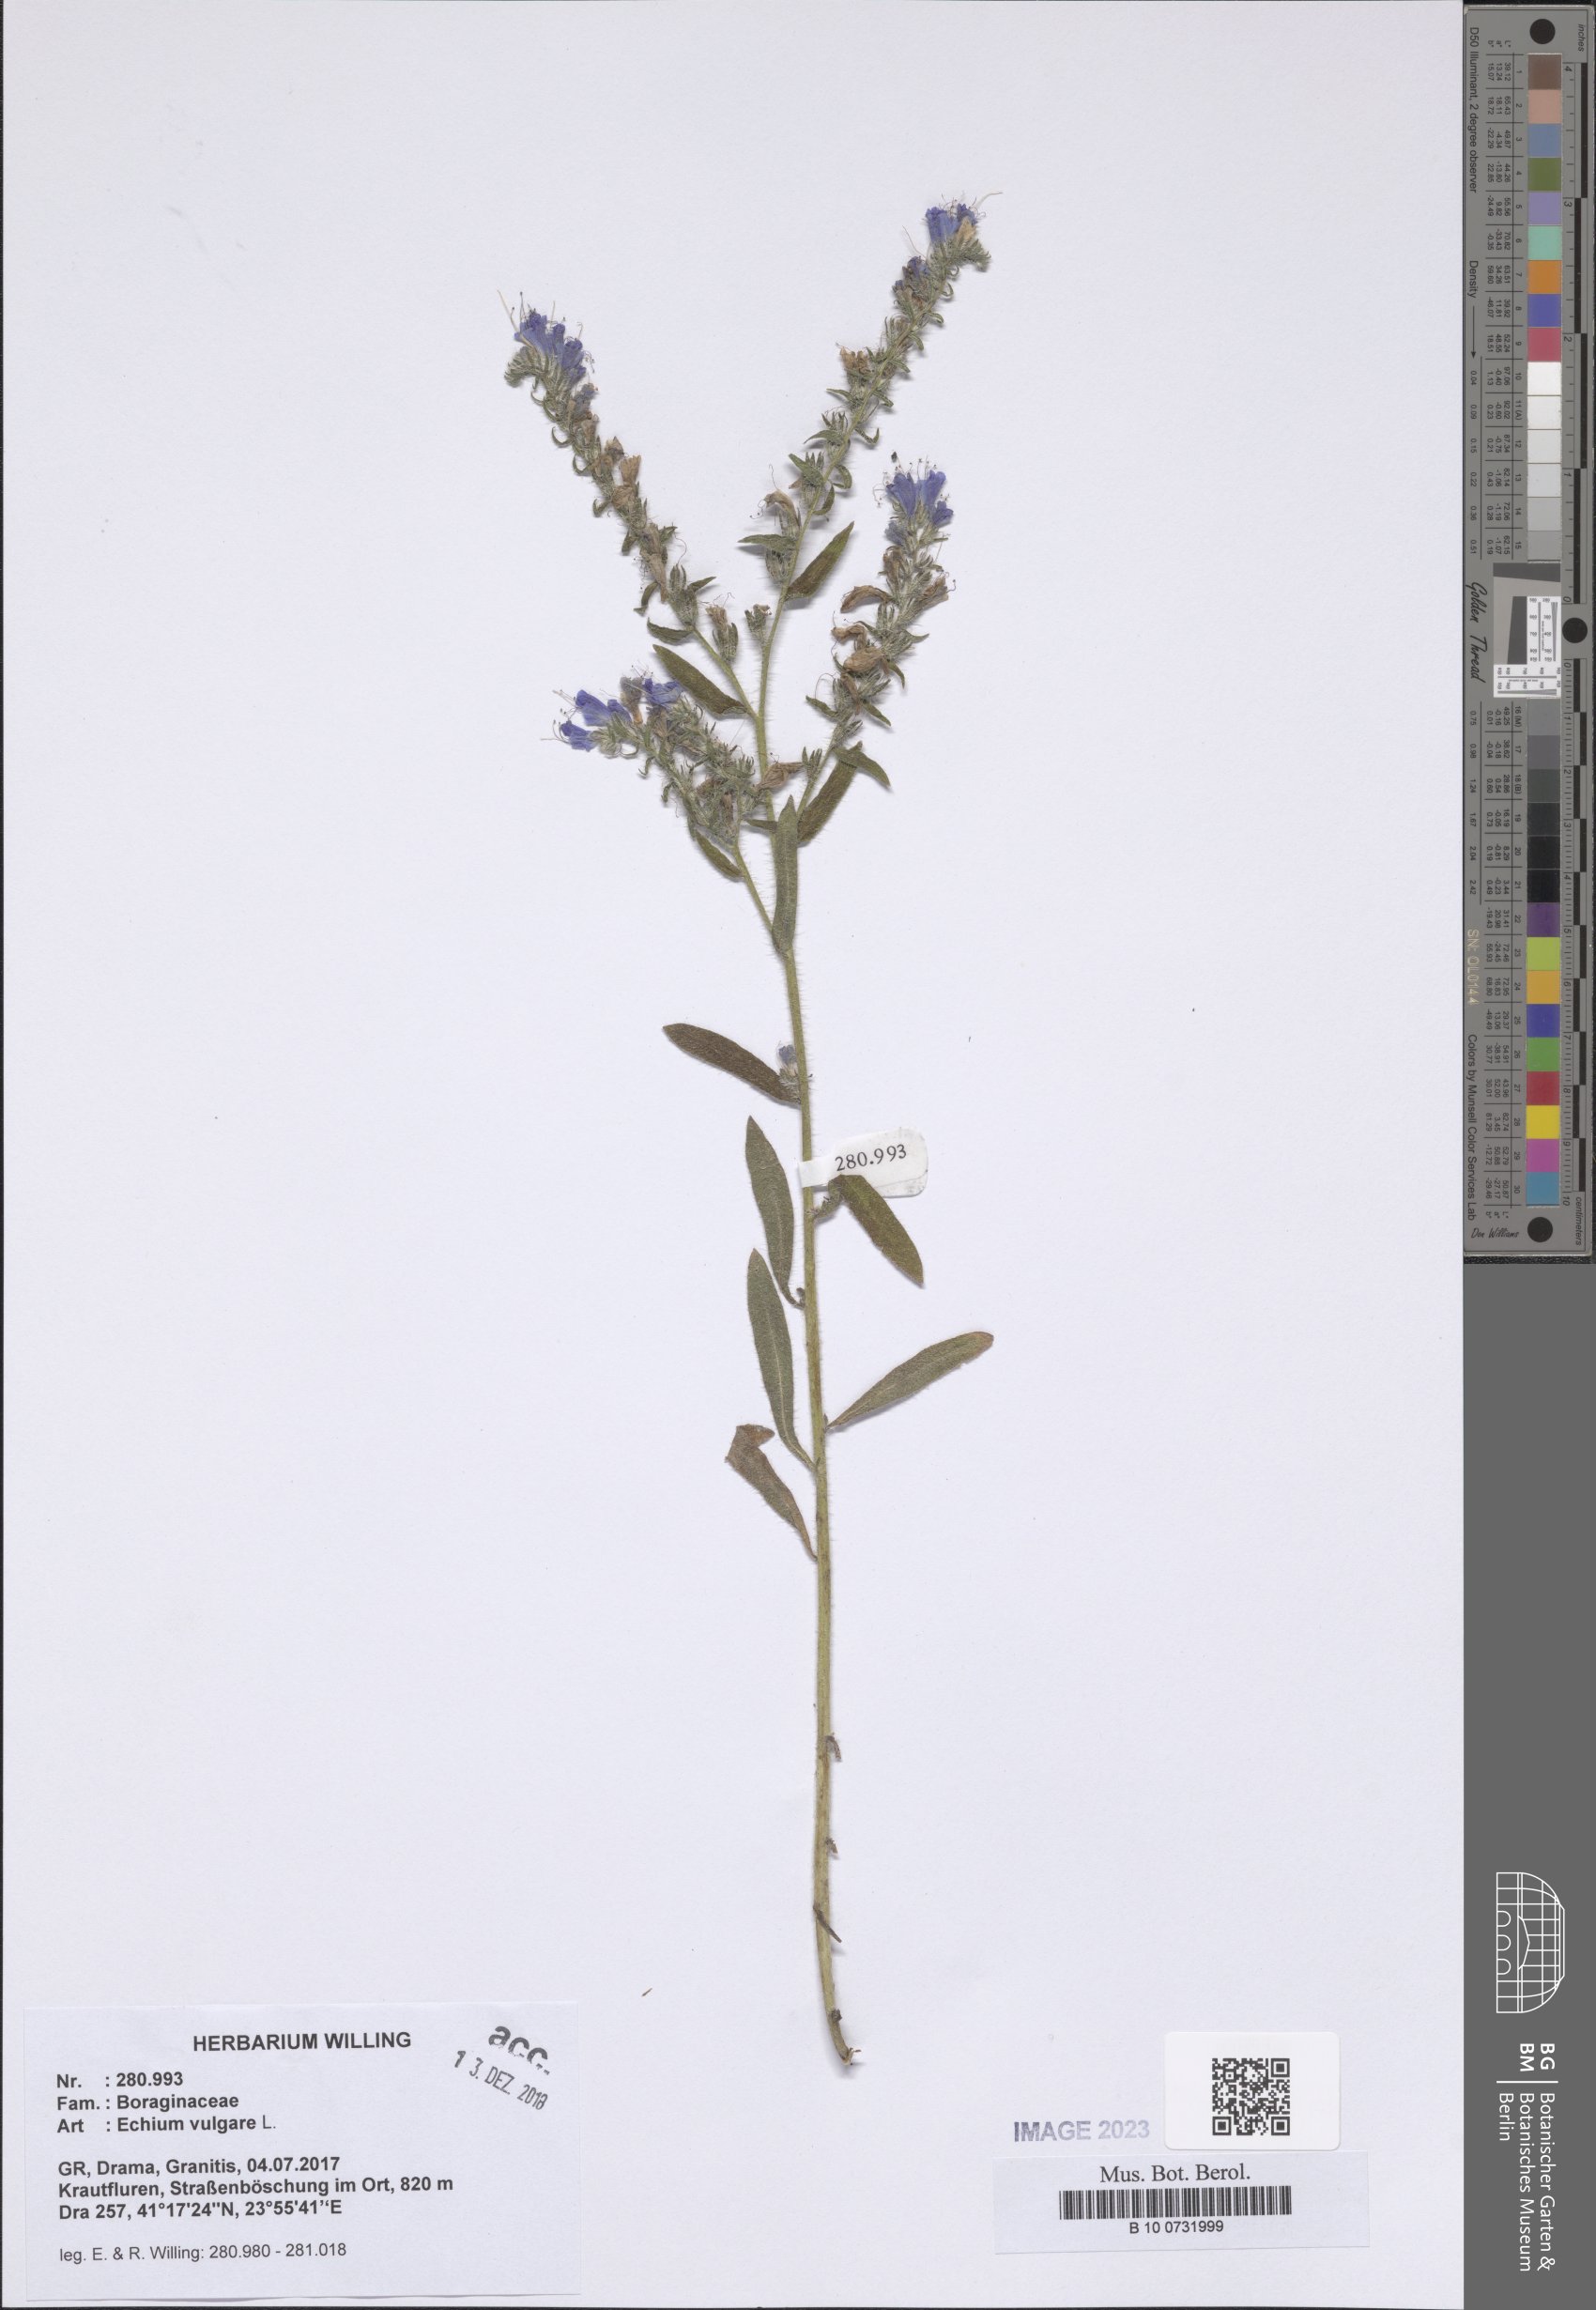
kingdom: Plantae
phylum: Tracheophyta
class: Magnoliopsida
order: Boraginales
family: Boraginaceae
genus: Echium
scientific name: Echium vulgare
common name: Common viper's bugloss
